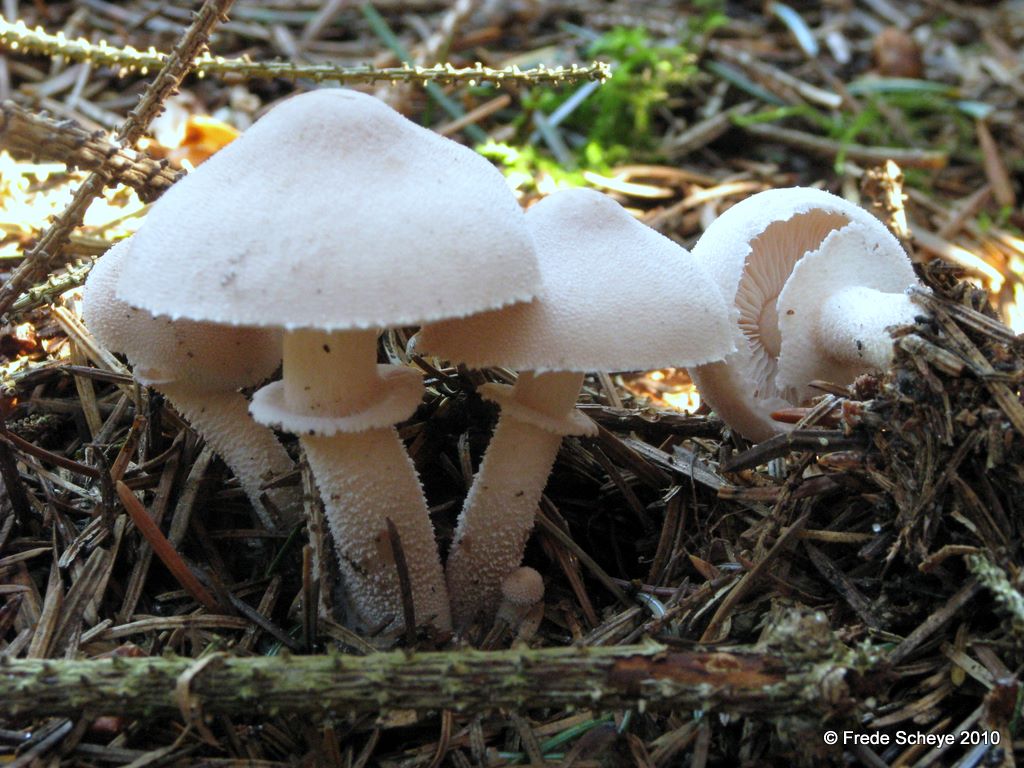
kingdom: Fungi
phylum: Basidiomycota
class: Agaricomycetes
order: Agaricales
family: Tricholomataceae
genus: Cystoderma
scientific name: Cystoderma carcharias
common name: rødgrå grynhat
